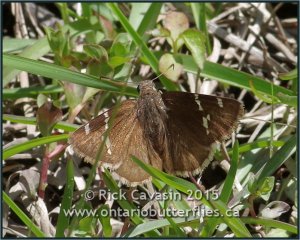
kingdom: Animalia
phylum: Arthropoda
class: Insecta
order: Lepidoptera
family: Hesperiidae
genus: Autochton
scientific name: Autochton
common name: Southern Cloudywing
